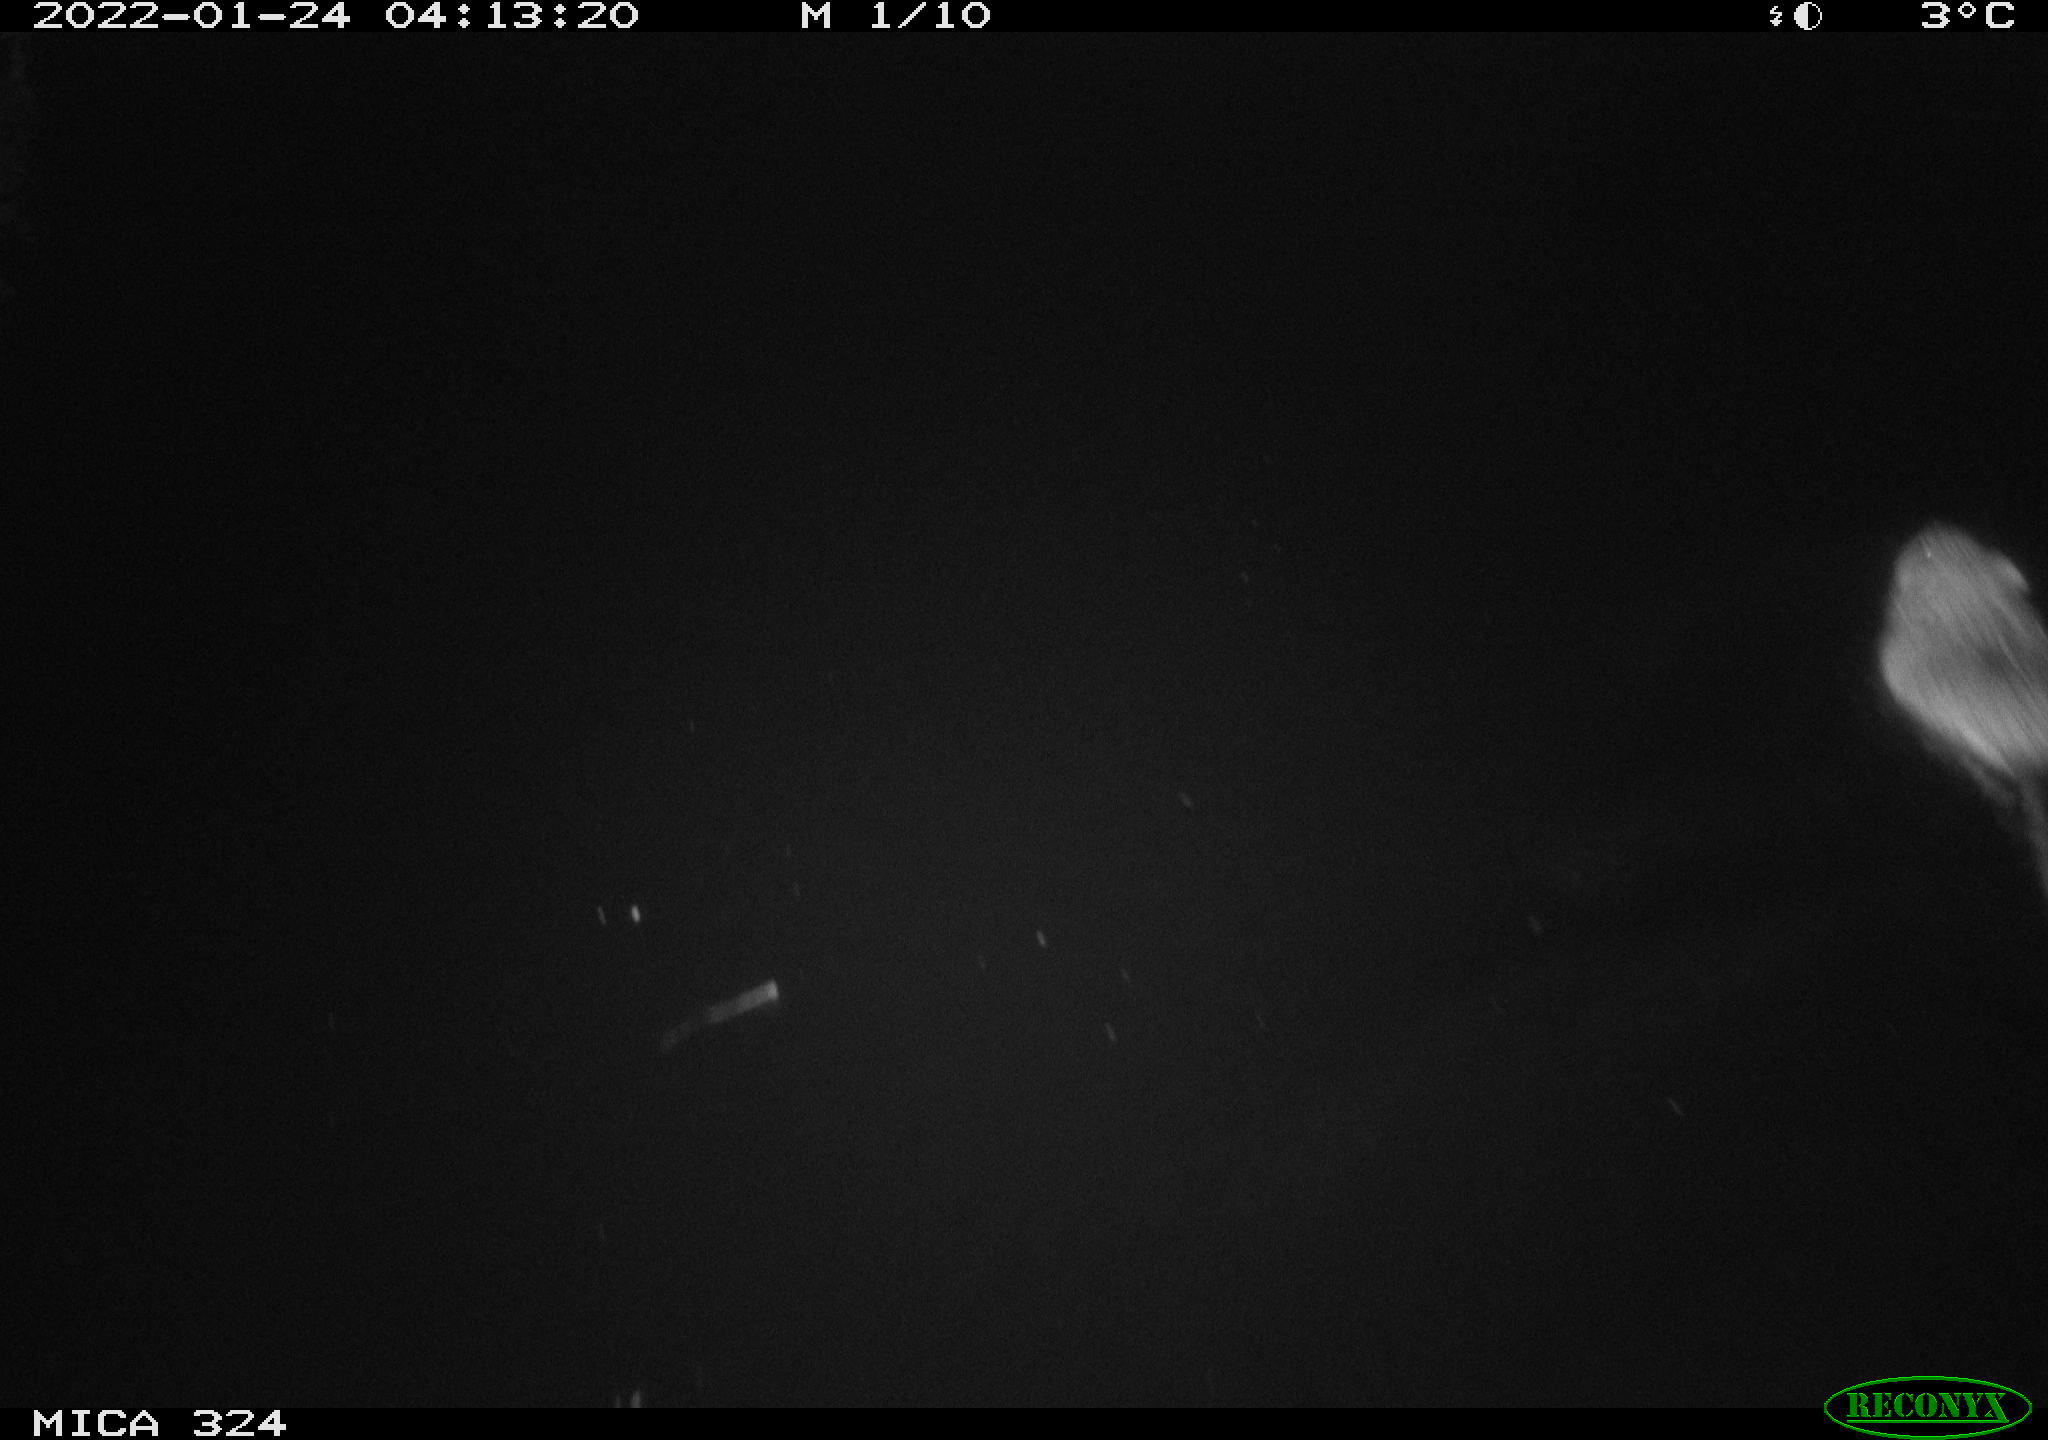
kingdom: Animalia
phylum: Chordata
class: Mammalia
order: Rodentia
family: Cricetidae
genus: Ondatra
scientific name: Ondatra zibethicus
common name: Muskrat
